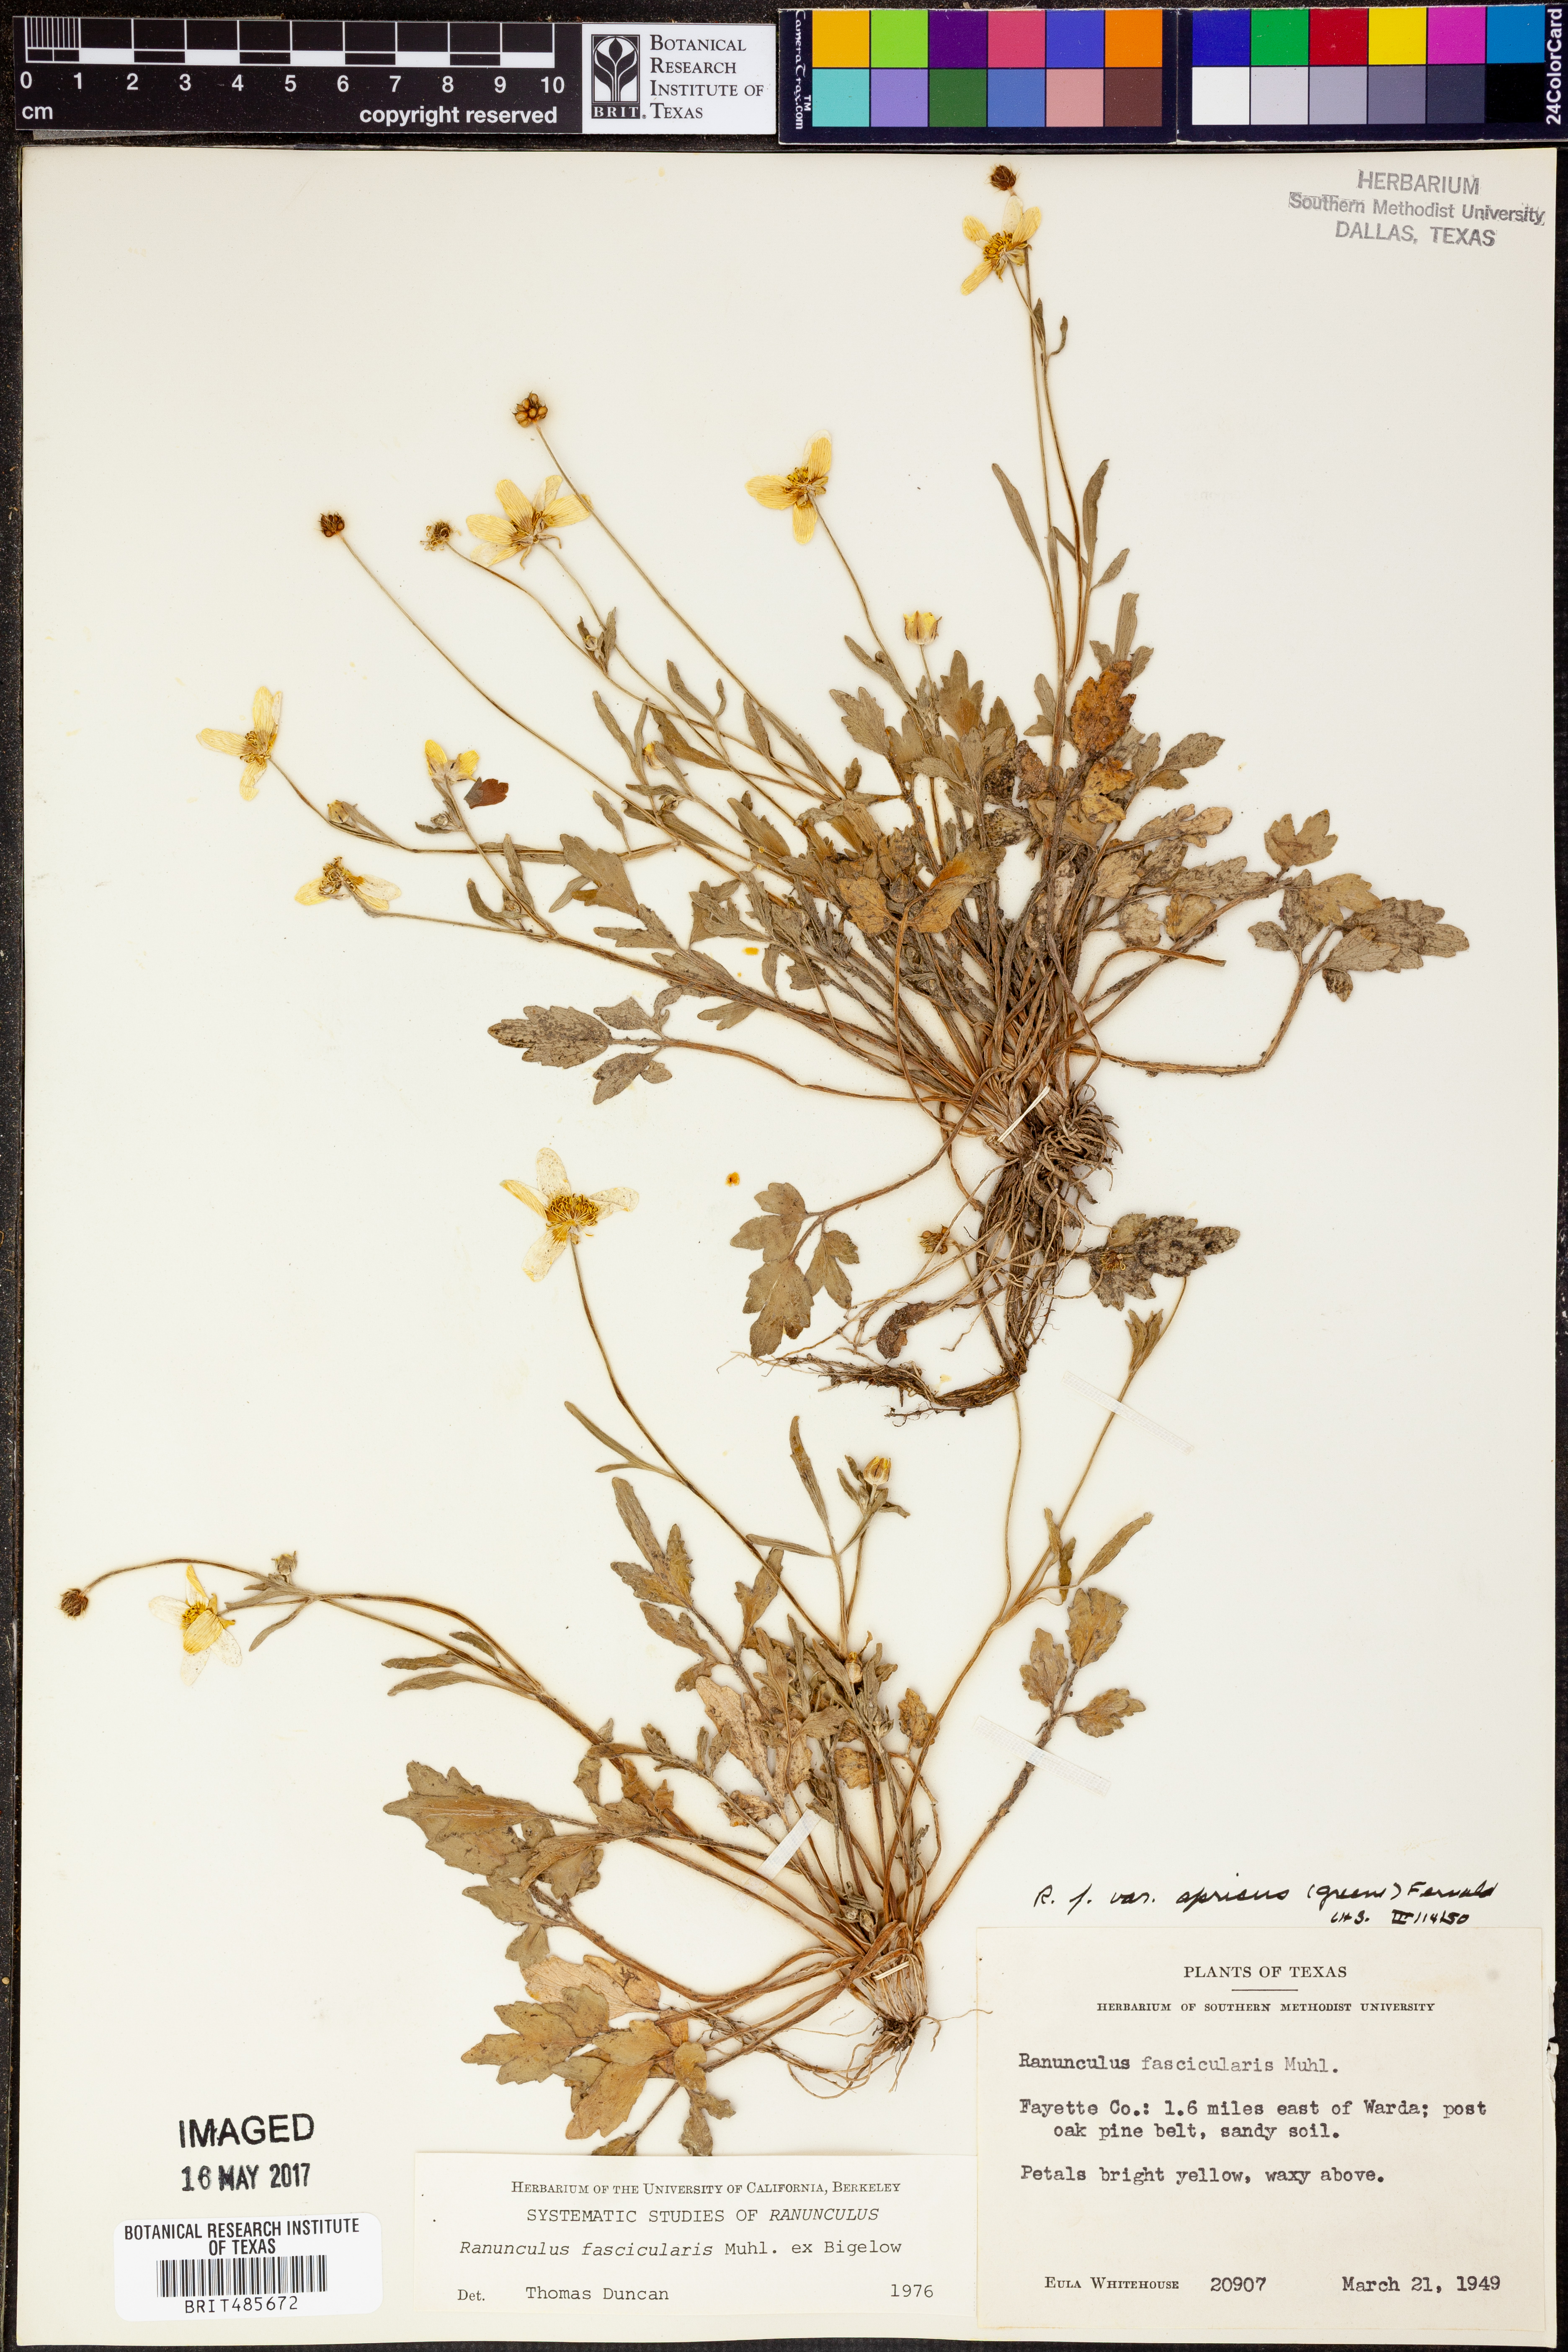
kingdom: Plantae
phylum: Tracheophyta
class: Magnoliopsida
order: Ranunculales
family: Ranunculaceae
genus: Ranunculus
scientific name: Ranunculus fascicularis
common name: Early buttercup
